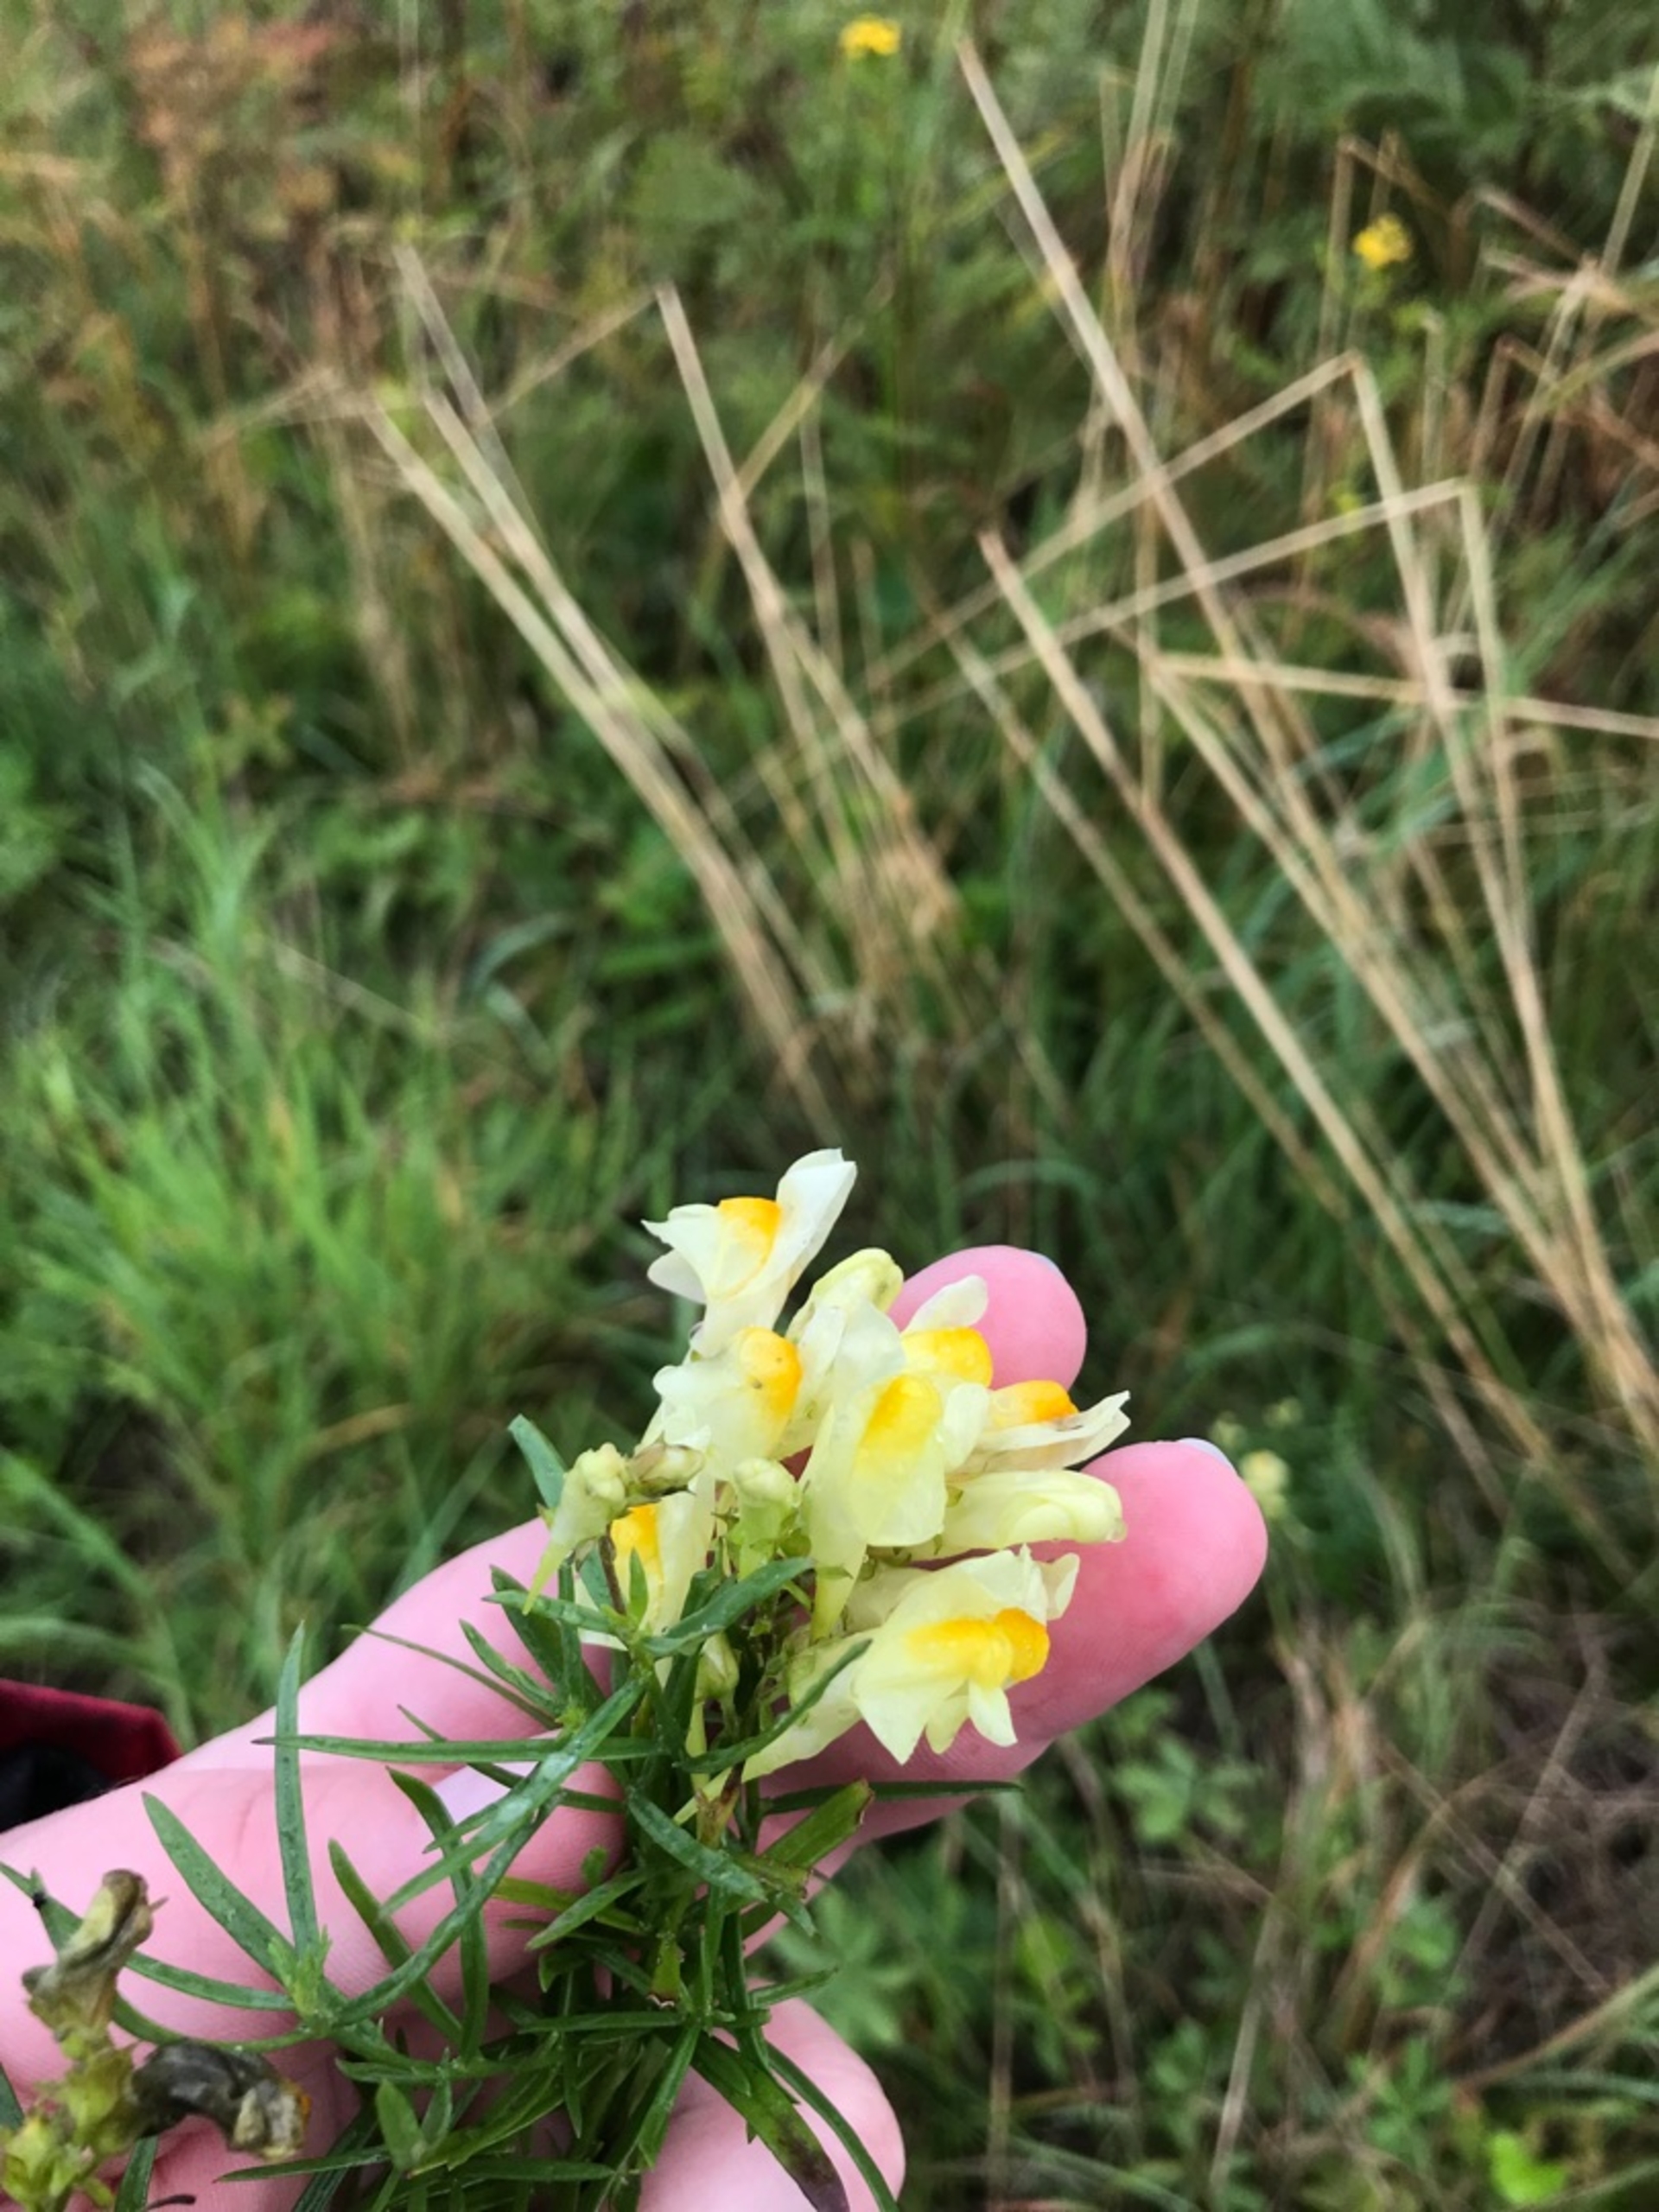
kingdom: Plantae
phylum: Tracheophyta
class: Magnoliopsida
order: Lamiales
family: Plantaginaceae
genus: Linaria
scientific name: Linaria vulgaris
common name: Almindelig torskemund
